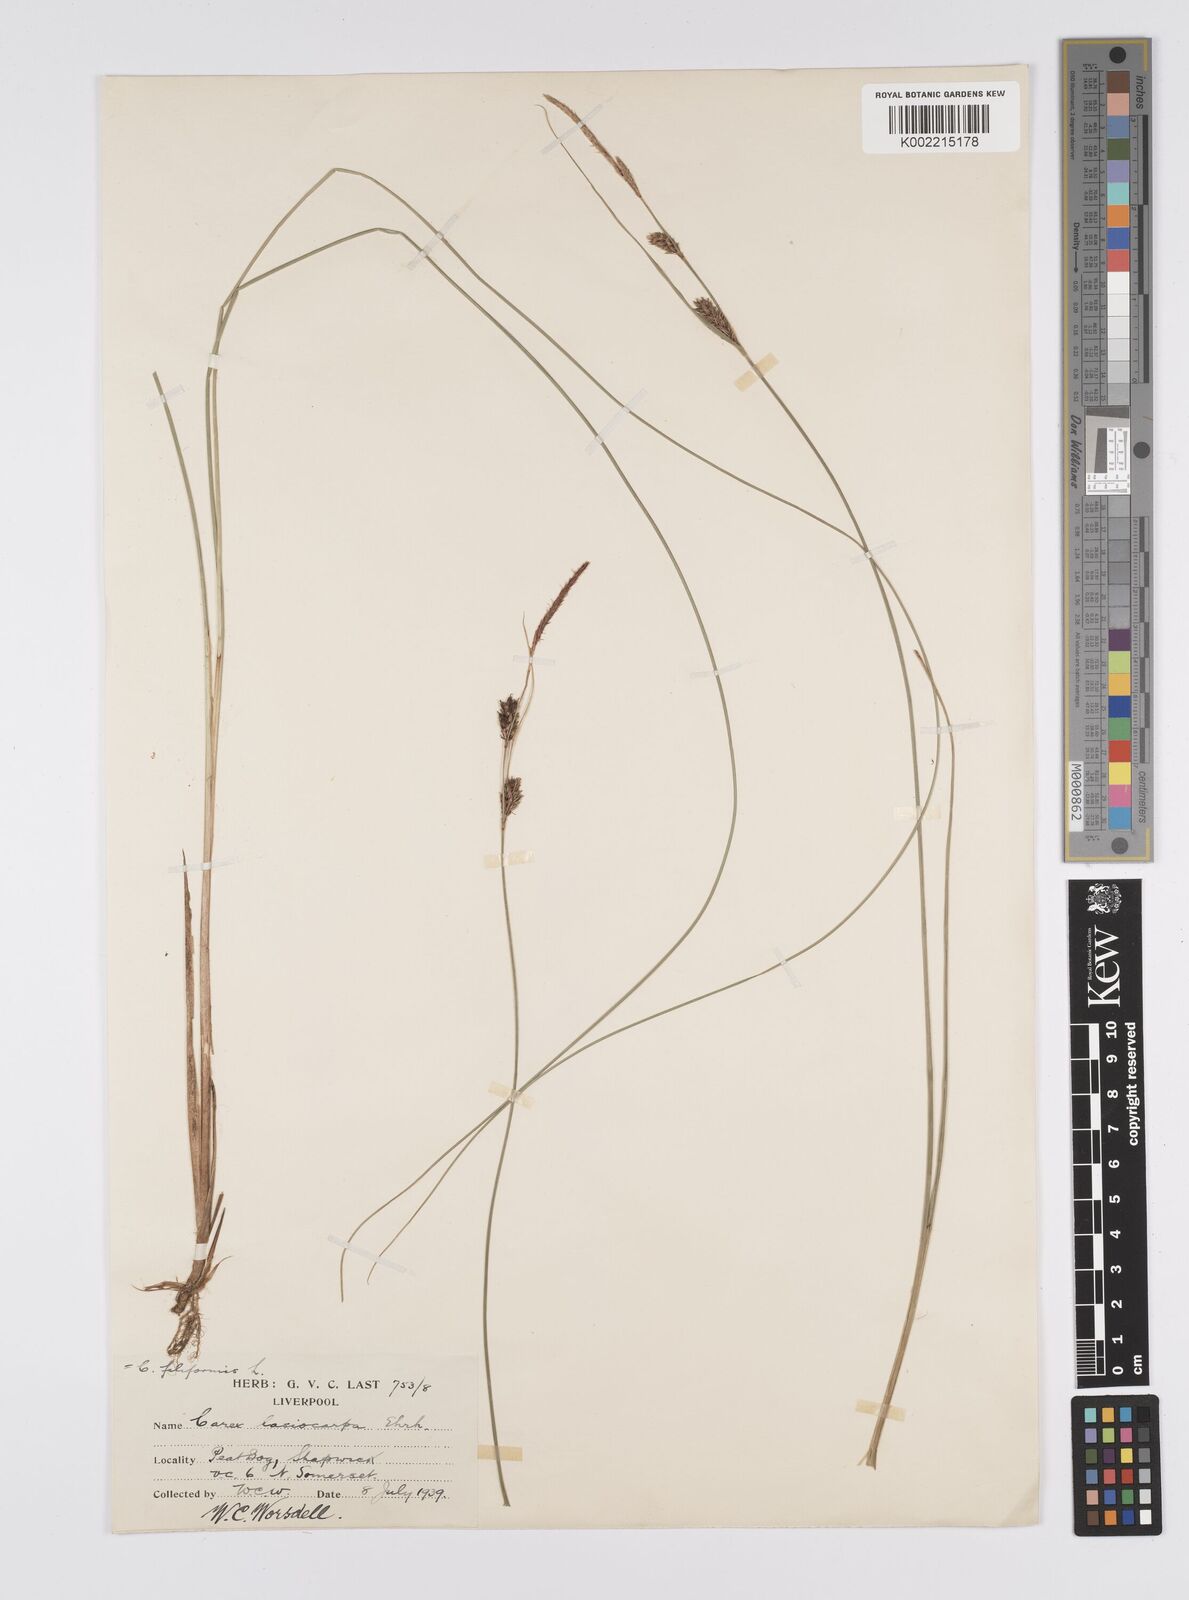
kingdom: Plantae
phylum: Tracheophyta
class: Liliopsida
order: Poales
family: Cyperaceae
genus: Carex
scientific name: Carex lasiocarpa
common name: Slender sedge
